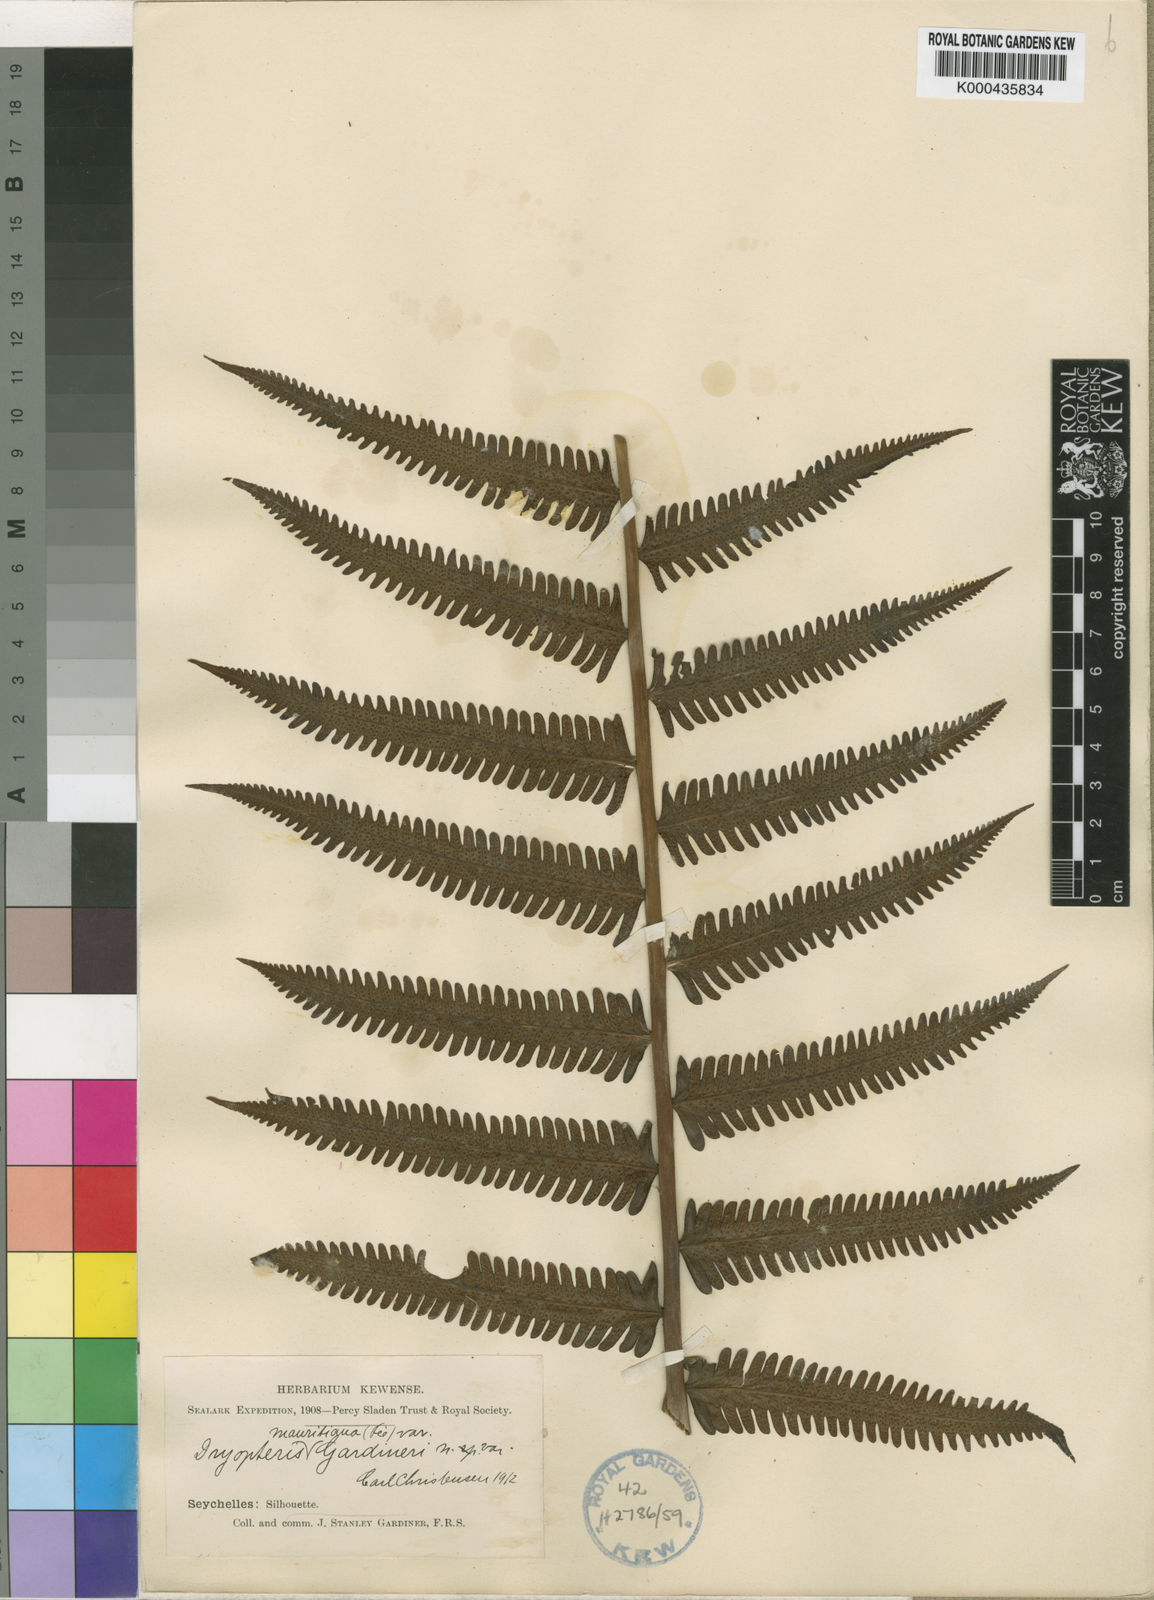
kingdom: Plantae
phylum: Tracheophyta
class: Polypodiopsida
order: Polypodiales
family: Thelypteridaceae
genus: Sphaerostephanos
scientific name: Sphaerostephanos subtruncatus
